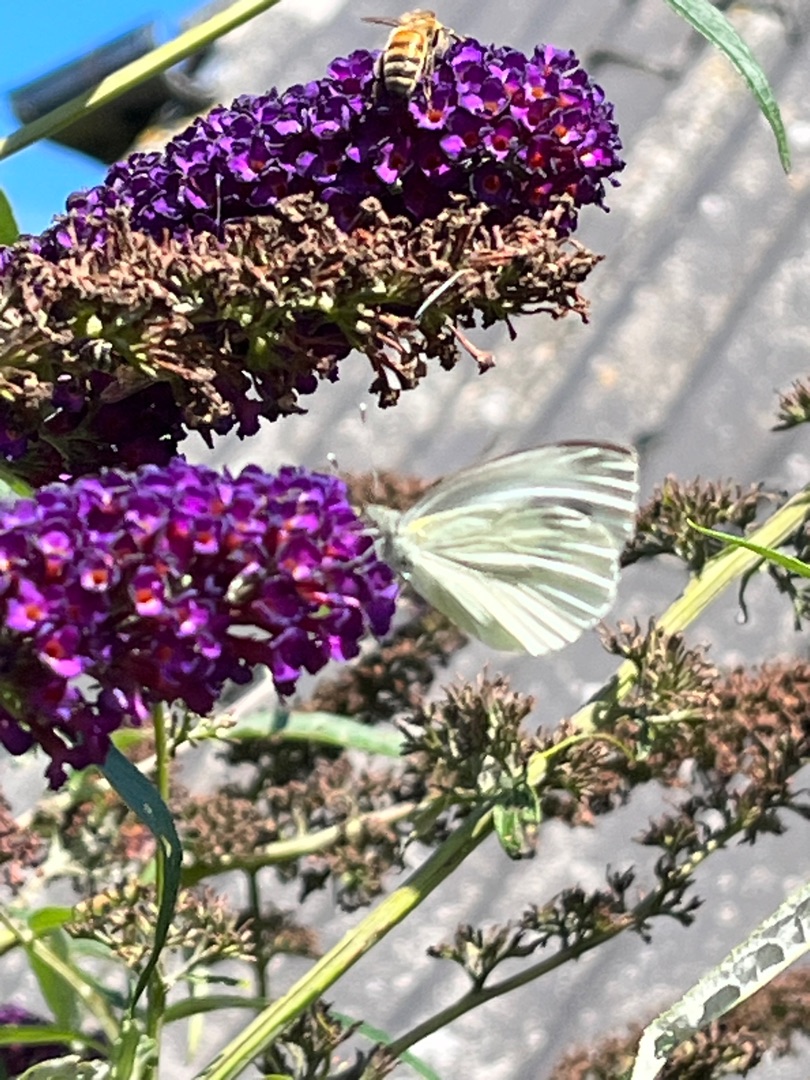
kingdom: Animalia
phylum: Arthropoda
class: Insecta
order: Lepidoptera
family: Pieridae
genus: Pieris
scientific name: Pieris napi
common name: Grønåret kålsommerfugl
